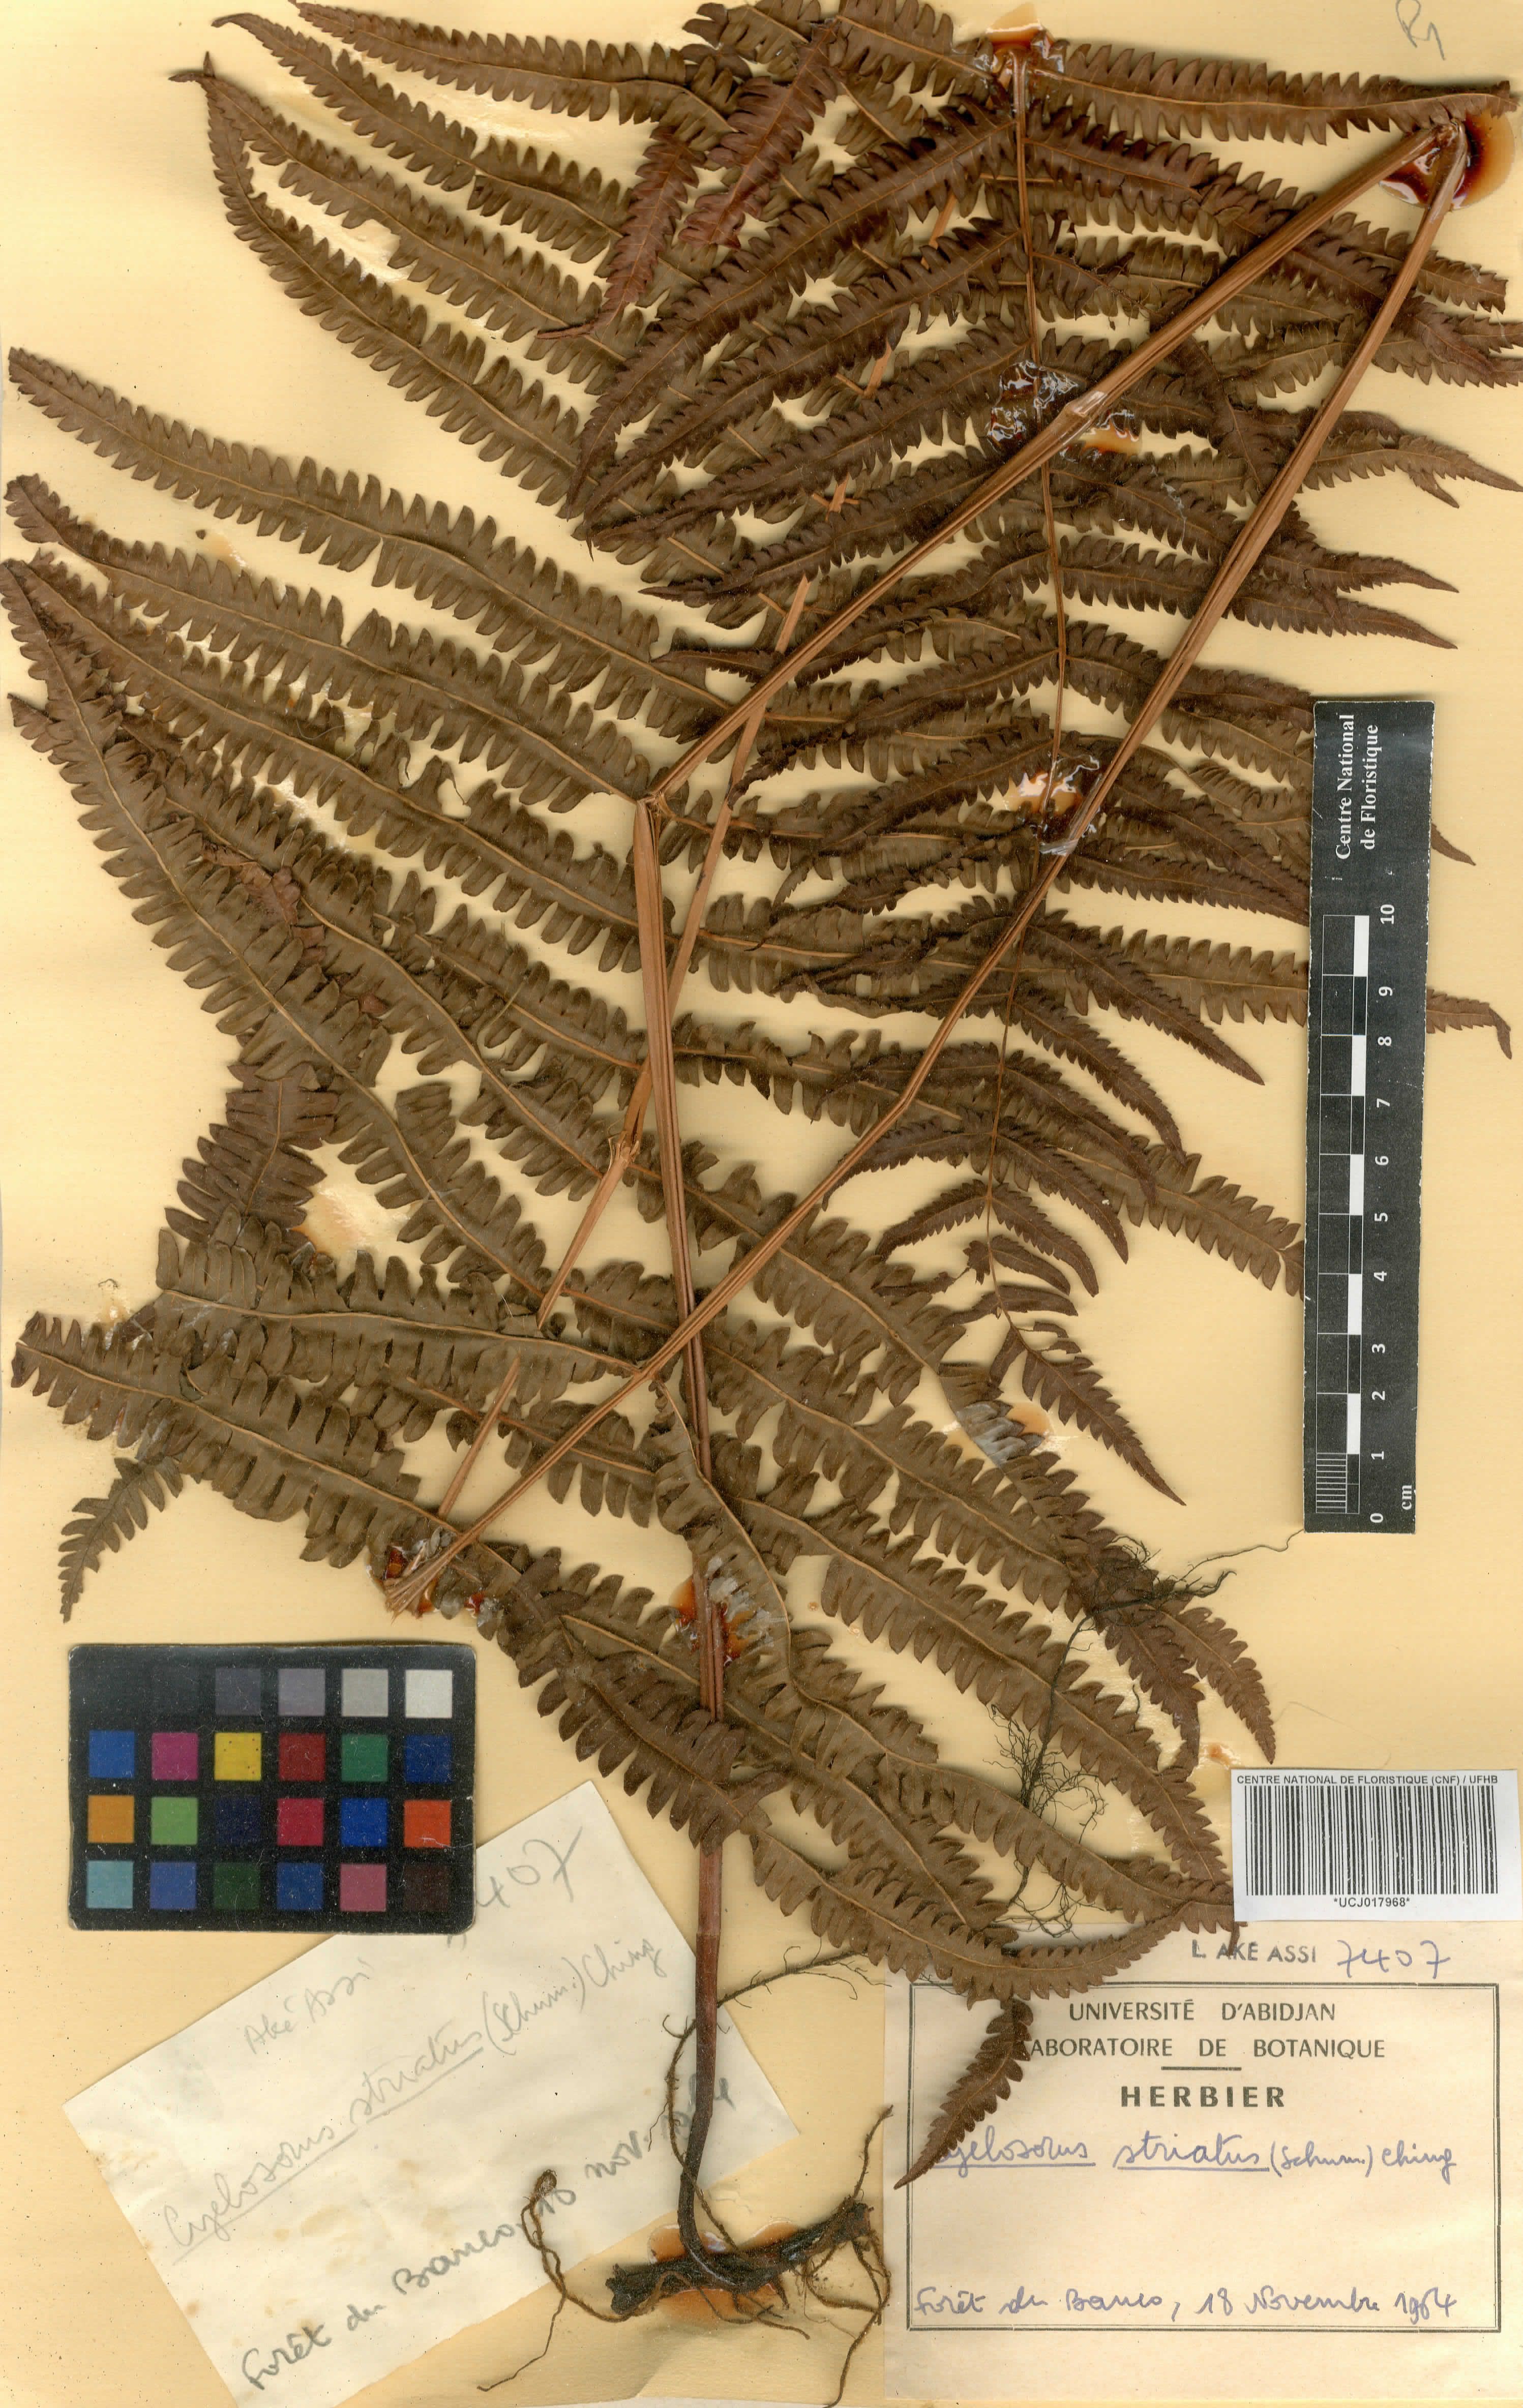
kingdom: Plantae
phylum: Tracheophyta
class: Polypodiopsida
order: Polypodiales
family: Thelypteridaceae
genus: Cyclosorus
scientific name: Cyclosorus striatus
